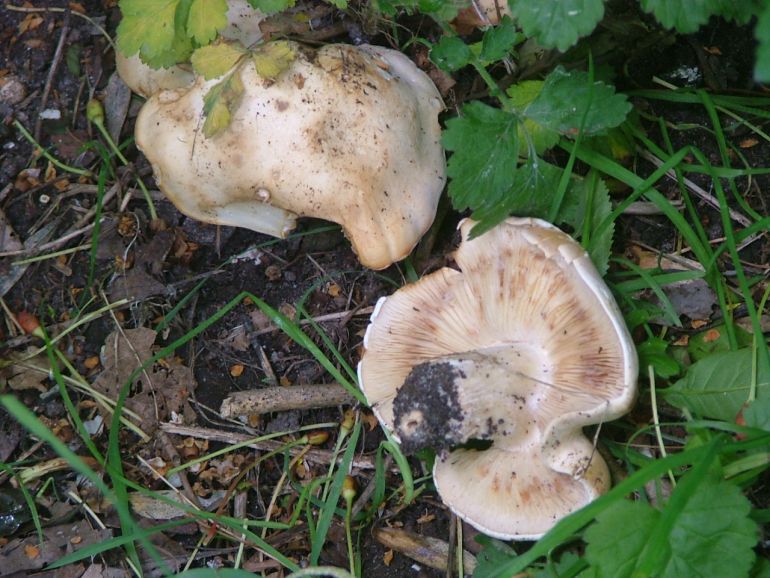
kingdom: Fungi
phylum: Basidiomycota
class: Agaricomycetes
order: Agaricales
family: Lyophyllaceae
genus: Calocybe
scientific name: Calocybe gambosa
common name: vårmusseron
